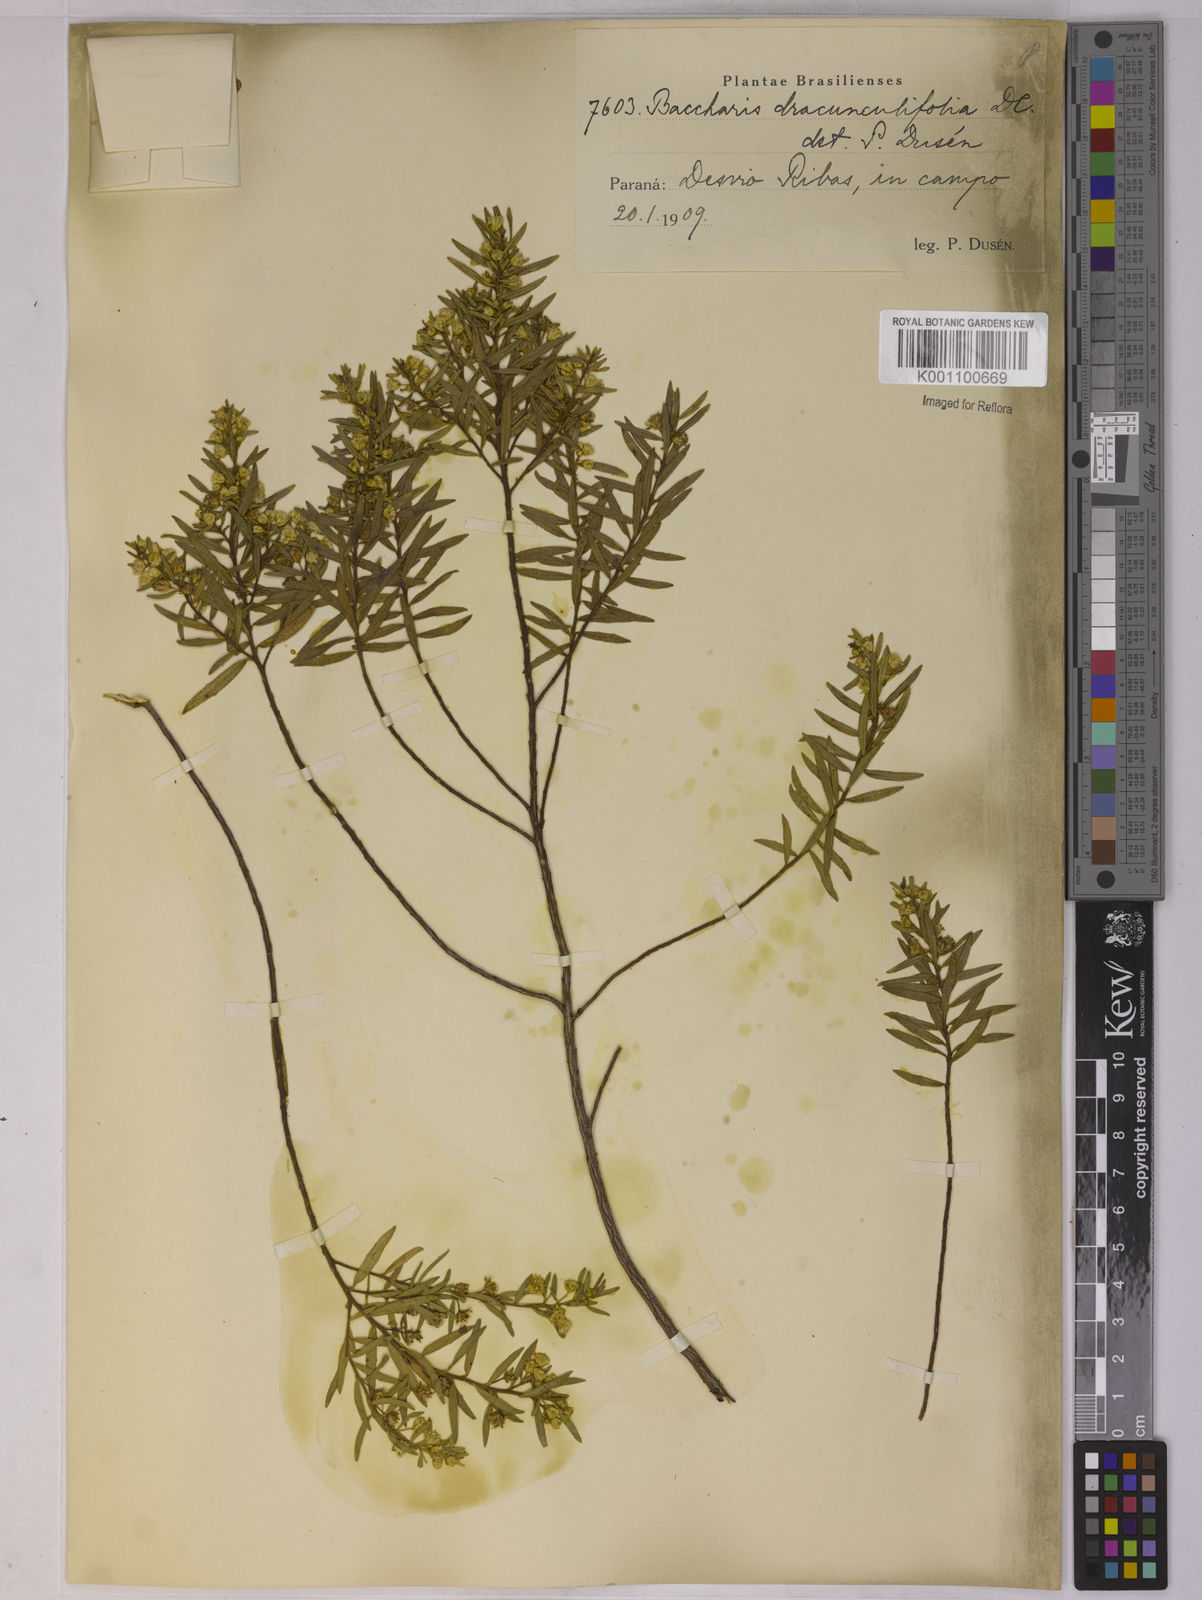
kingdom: Plantae
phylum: Tracheophyta
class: Magnoliopsida
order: Asterales
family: Asteraceae
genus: Baccharis
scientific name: Baccharis dracunculifolia
